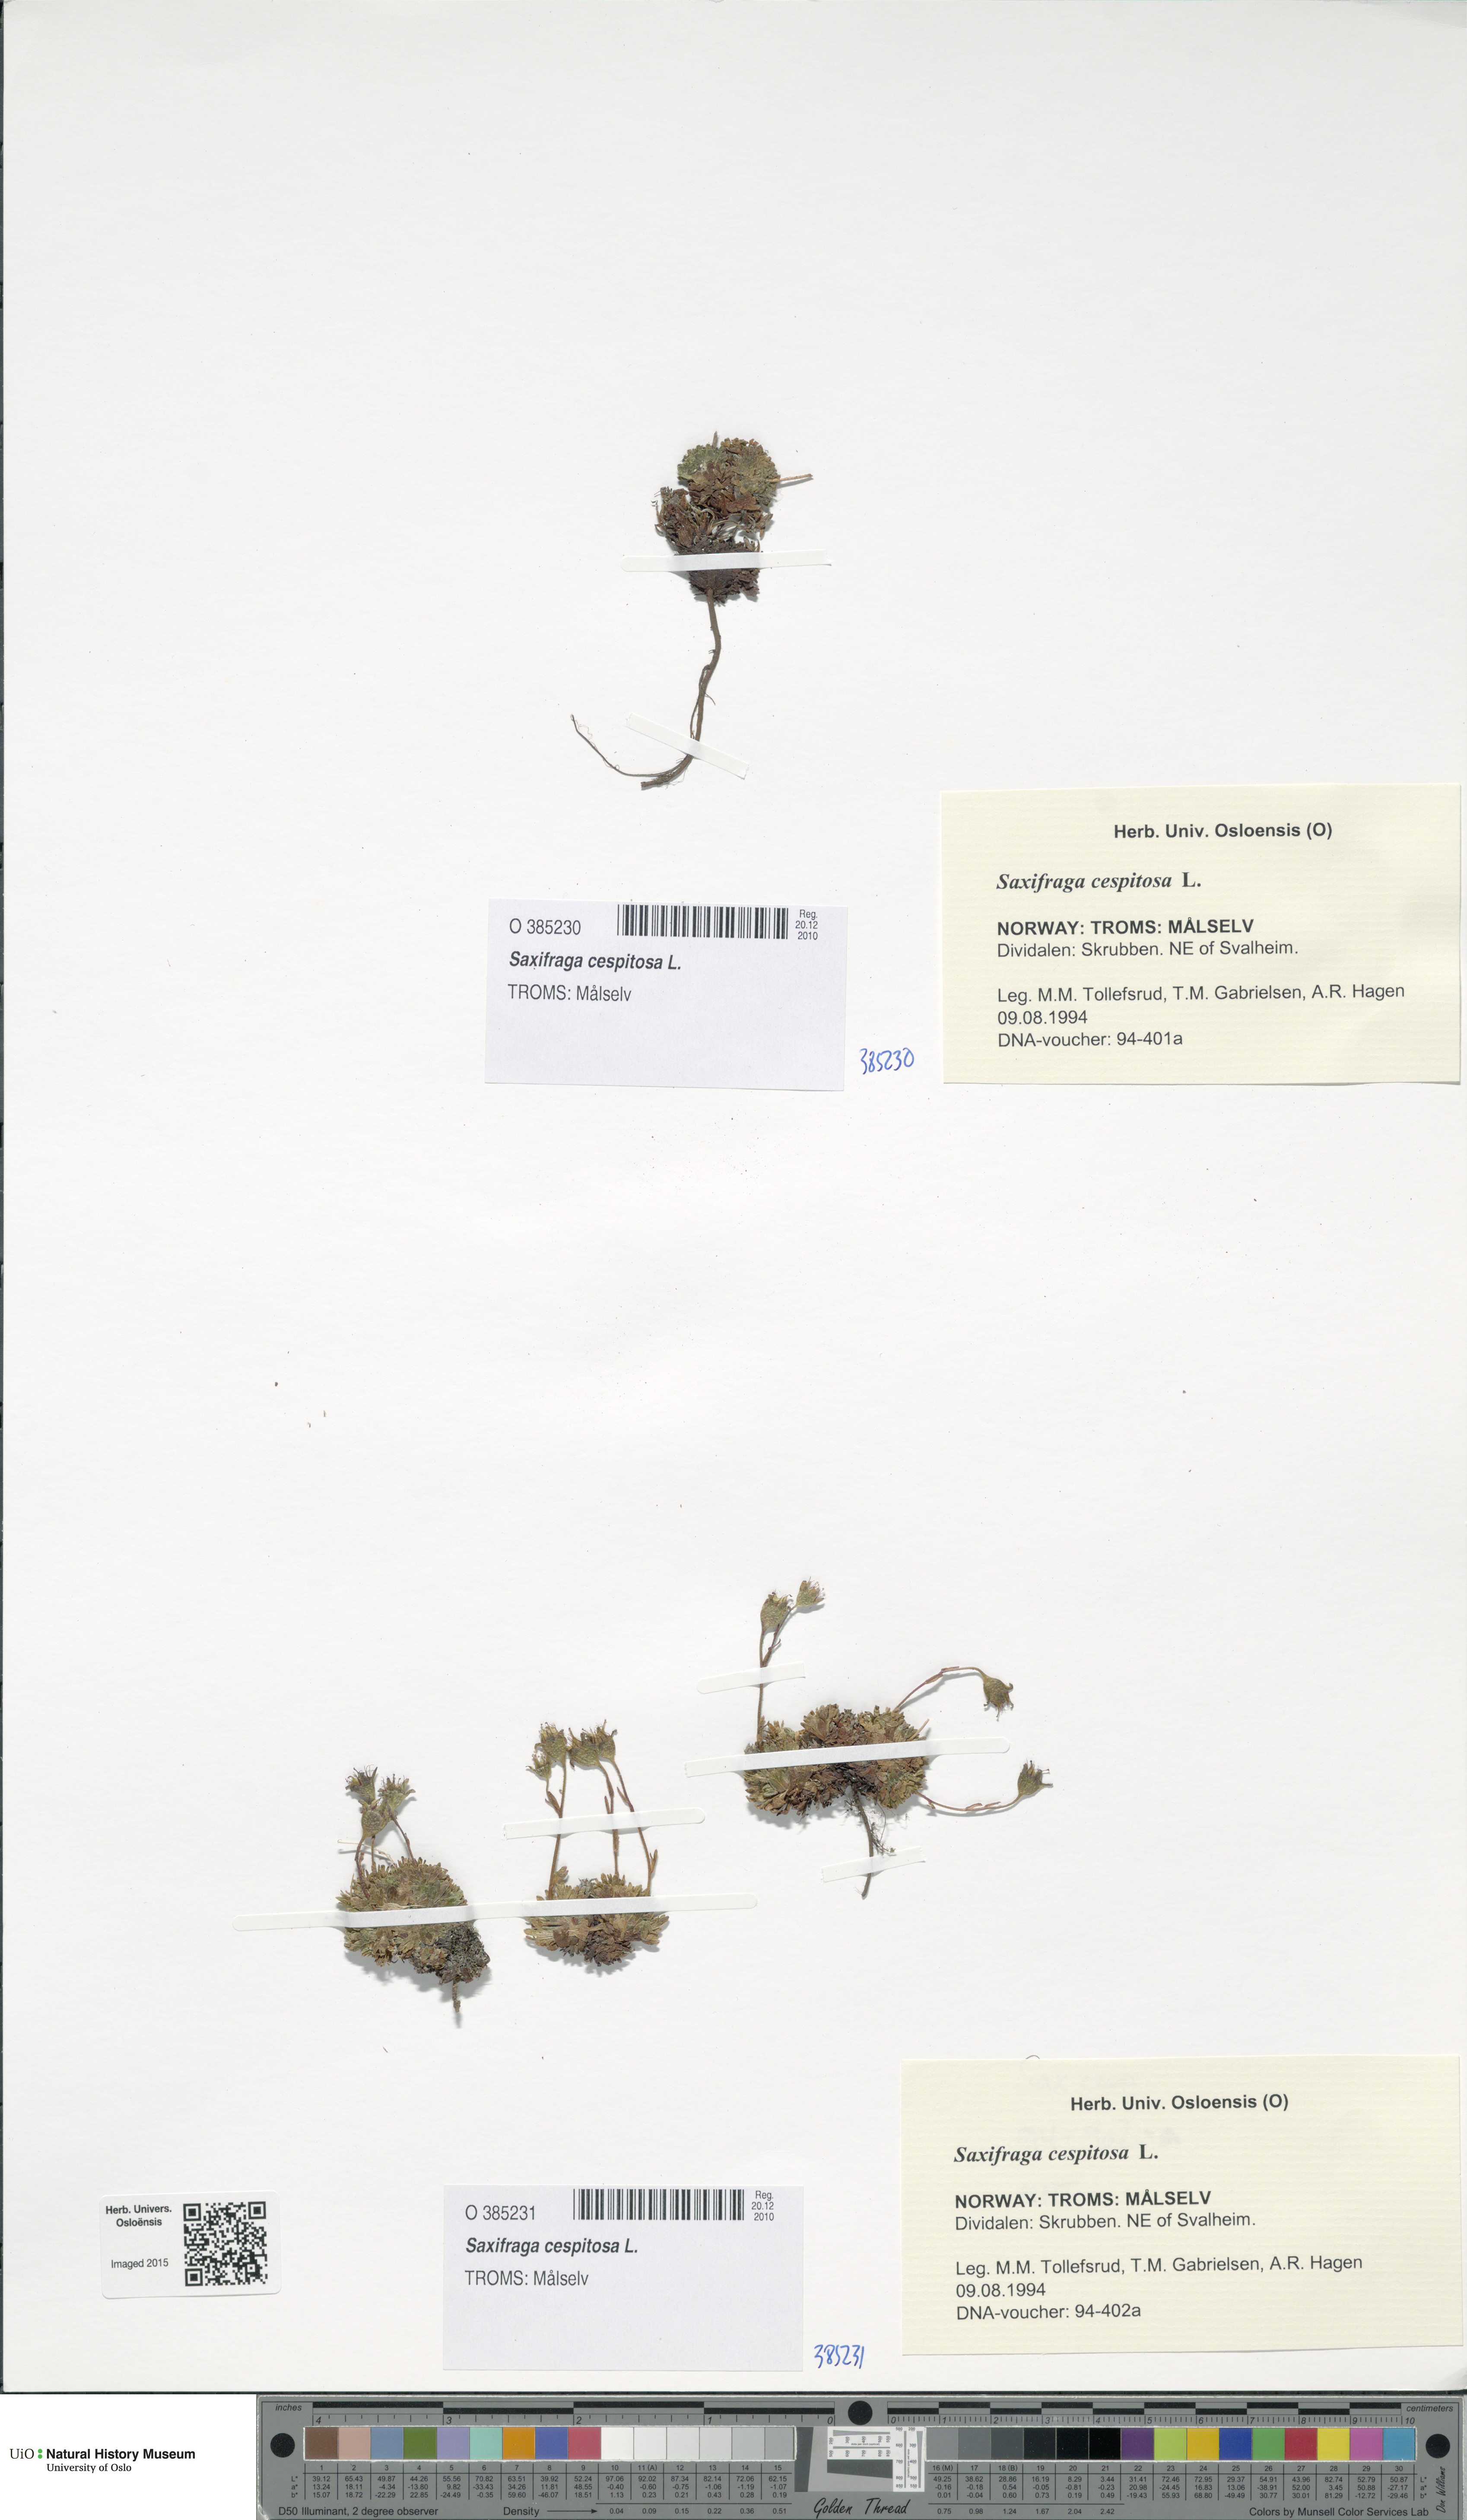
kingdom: Plantae
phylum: Tracheophyta
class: Magnoliopsida
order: Saxifragales
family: Saxifragaceae
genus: Saxifraga
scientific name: Saxifraga cespitosa
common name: Tufted saxifrage
